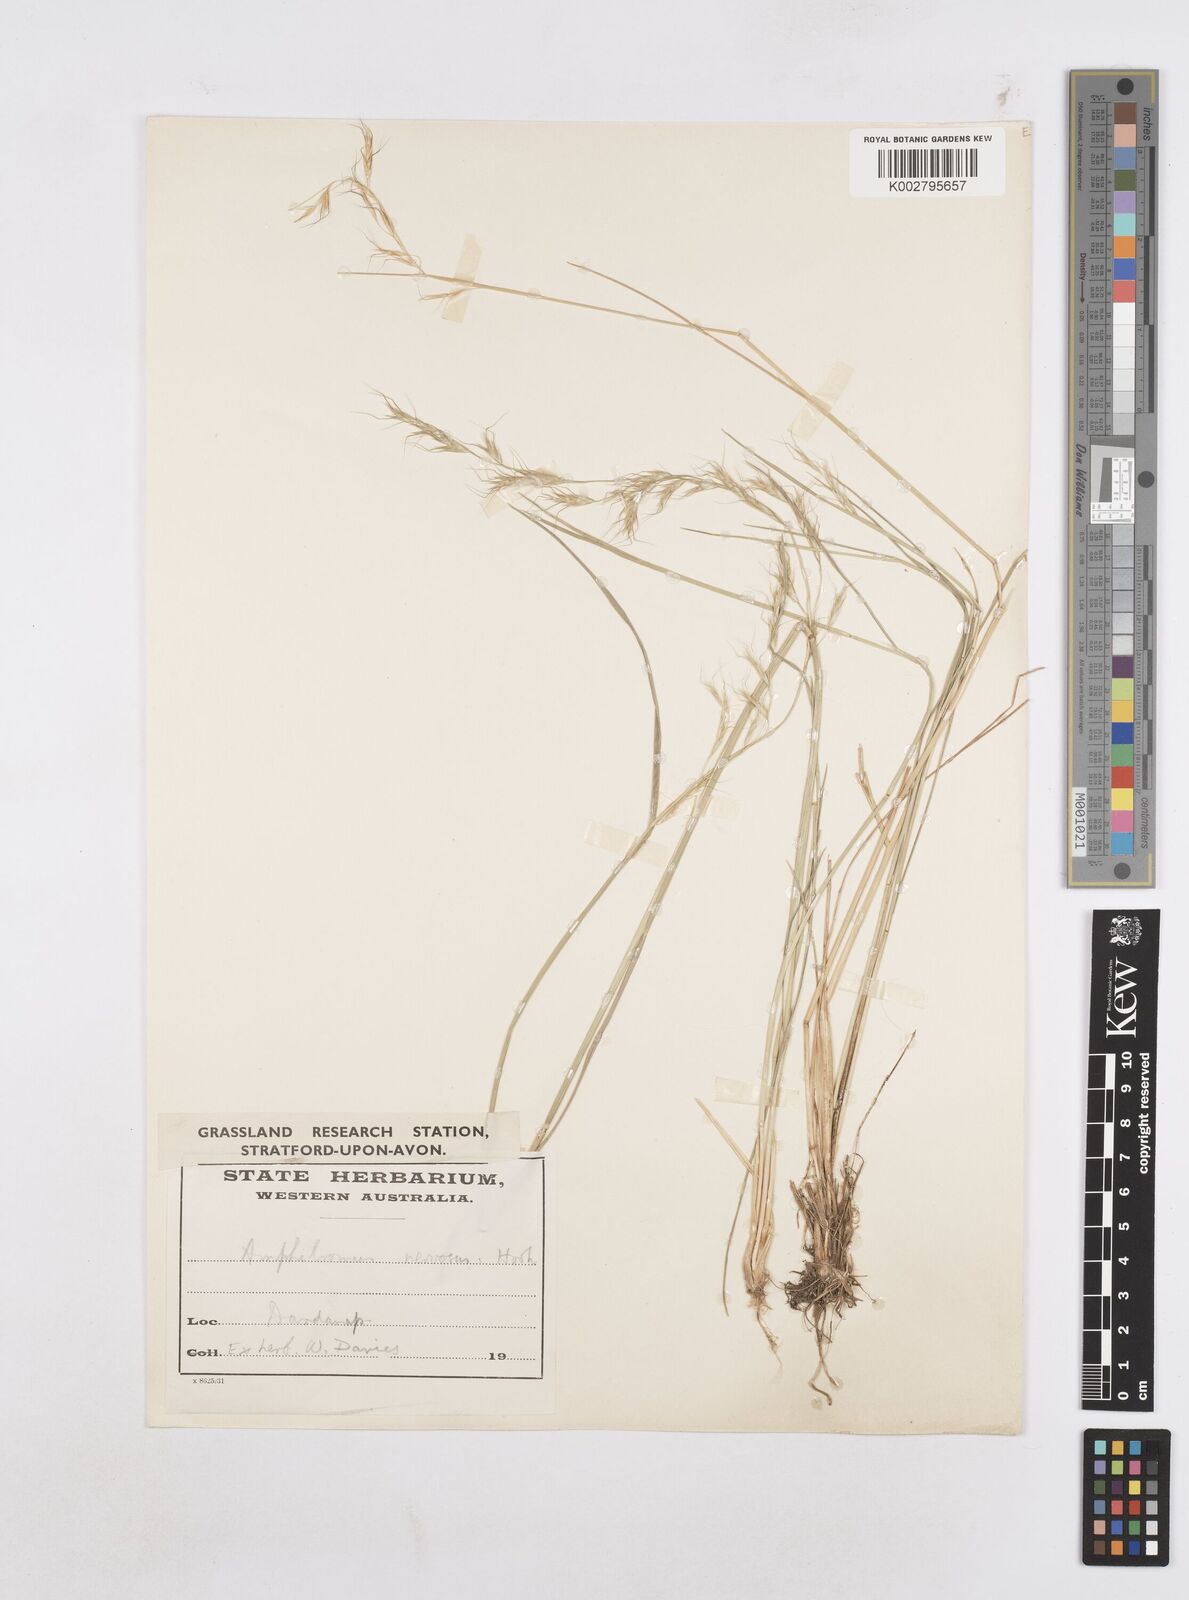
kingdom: Plantae
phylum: Tracheophyta
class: Liliopsida
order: Poales
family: Poaceae
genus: Amphibromus
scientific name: Amphibromus neesii
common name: Australian wallaby grass
